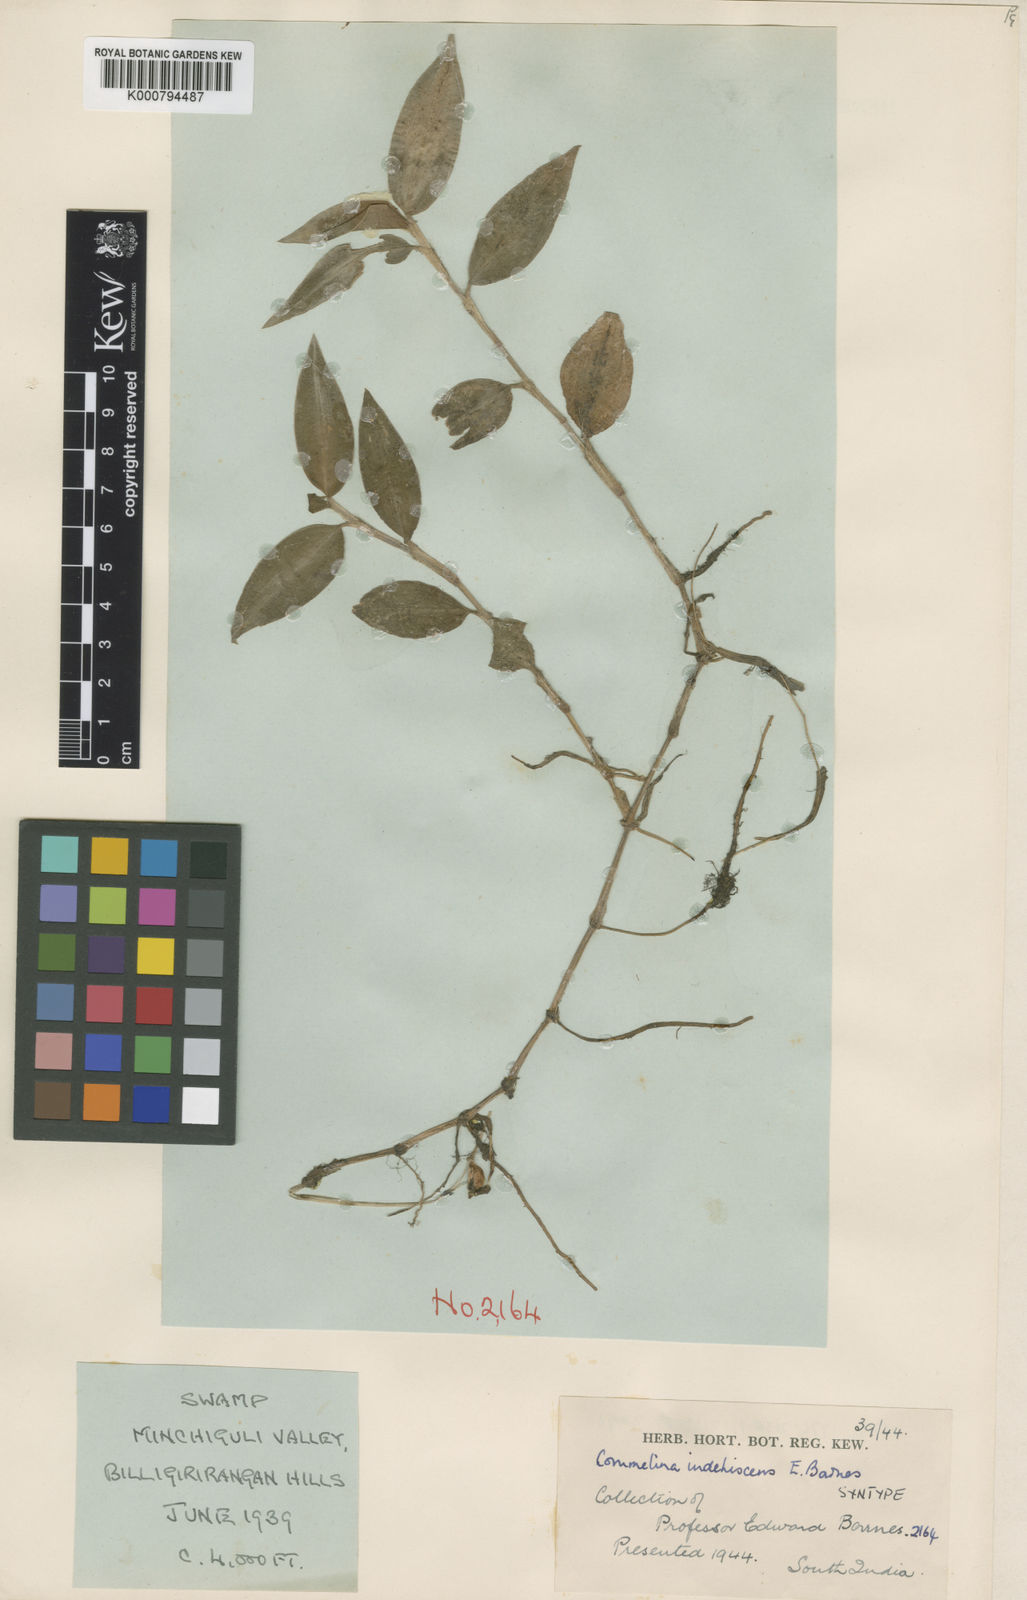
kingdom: Plantae
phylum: Tracheophyta
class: Liliopsida
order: Commelinales
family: Commelinaceae
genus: Commelina
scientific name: Commelina indehiscens
